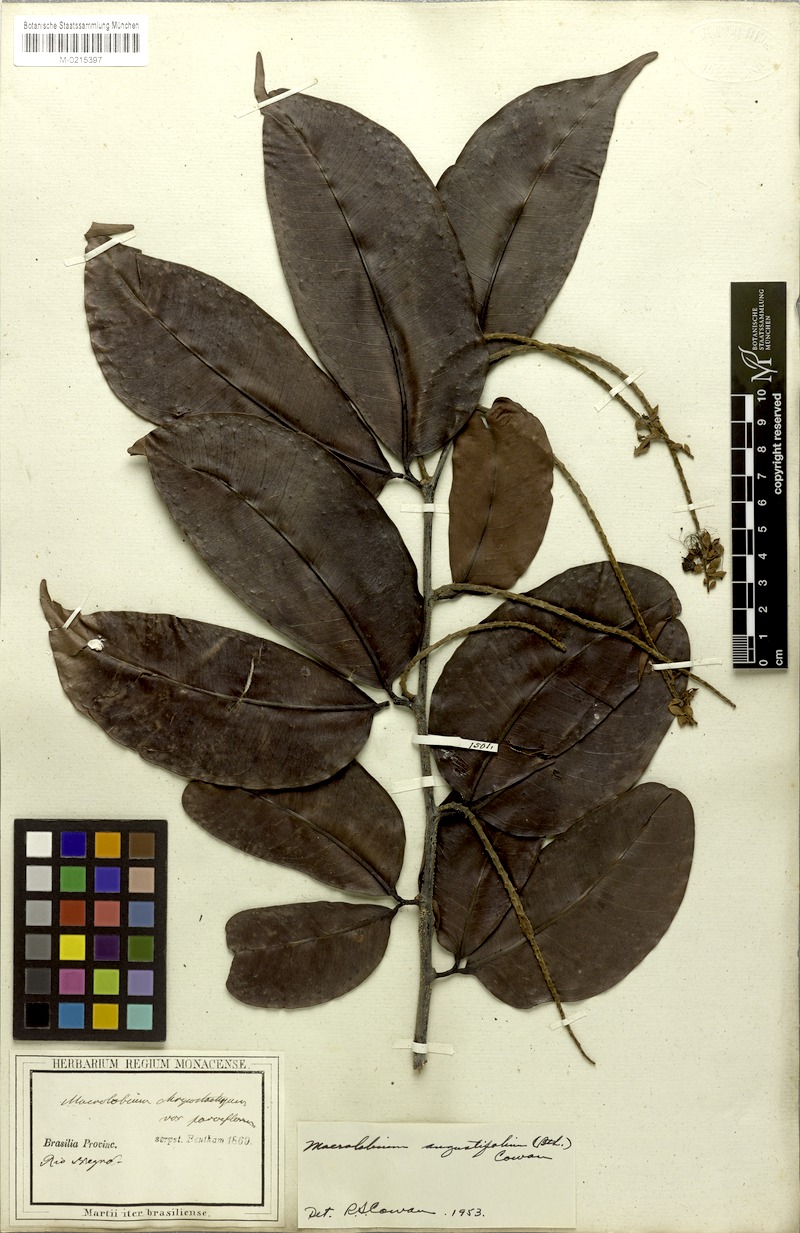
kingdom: Plantae
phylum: Tracheophyta
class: Magnoliopsida
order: Fabales
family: Fabaceae
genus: Macrolobium
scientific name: Macrolobium angustifolium
